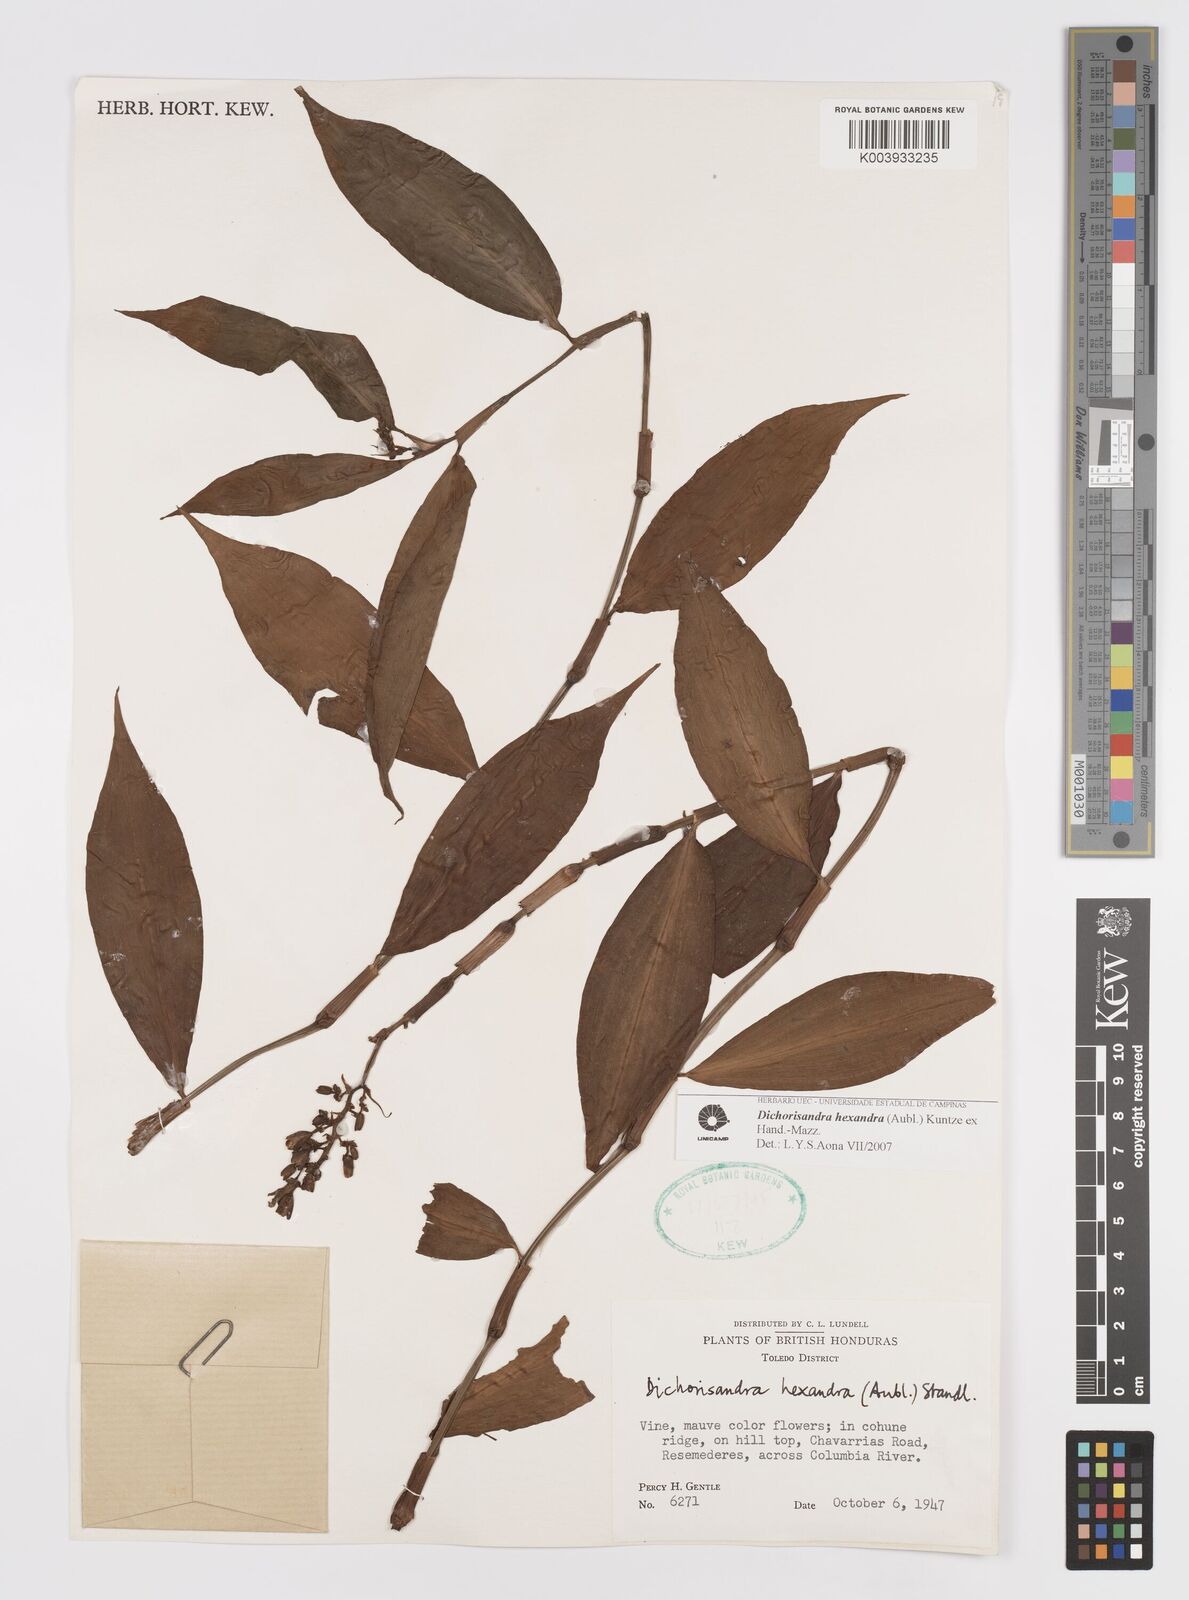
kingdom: Plantae
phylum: Tracheophyta
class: Liliopsida
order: Commelinales
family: Commelinaceae
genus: Dichorisandra
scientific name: Dichorisandra hexandra
